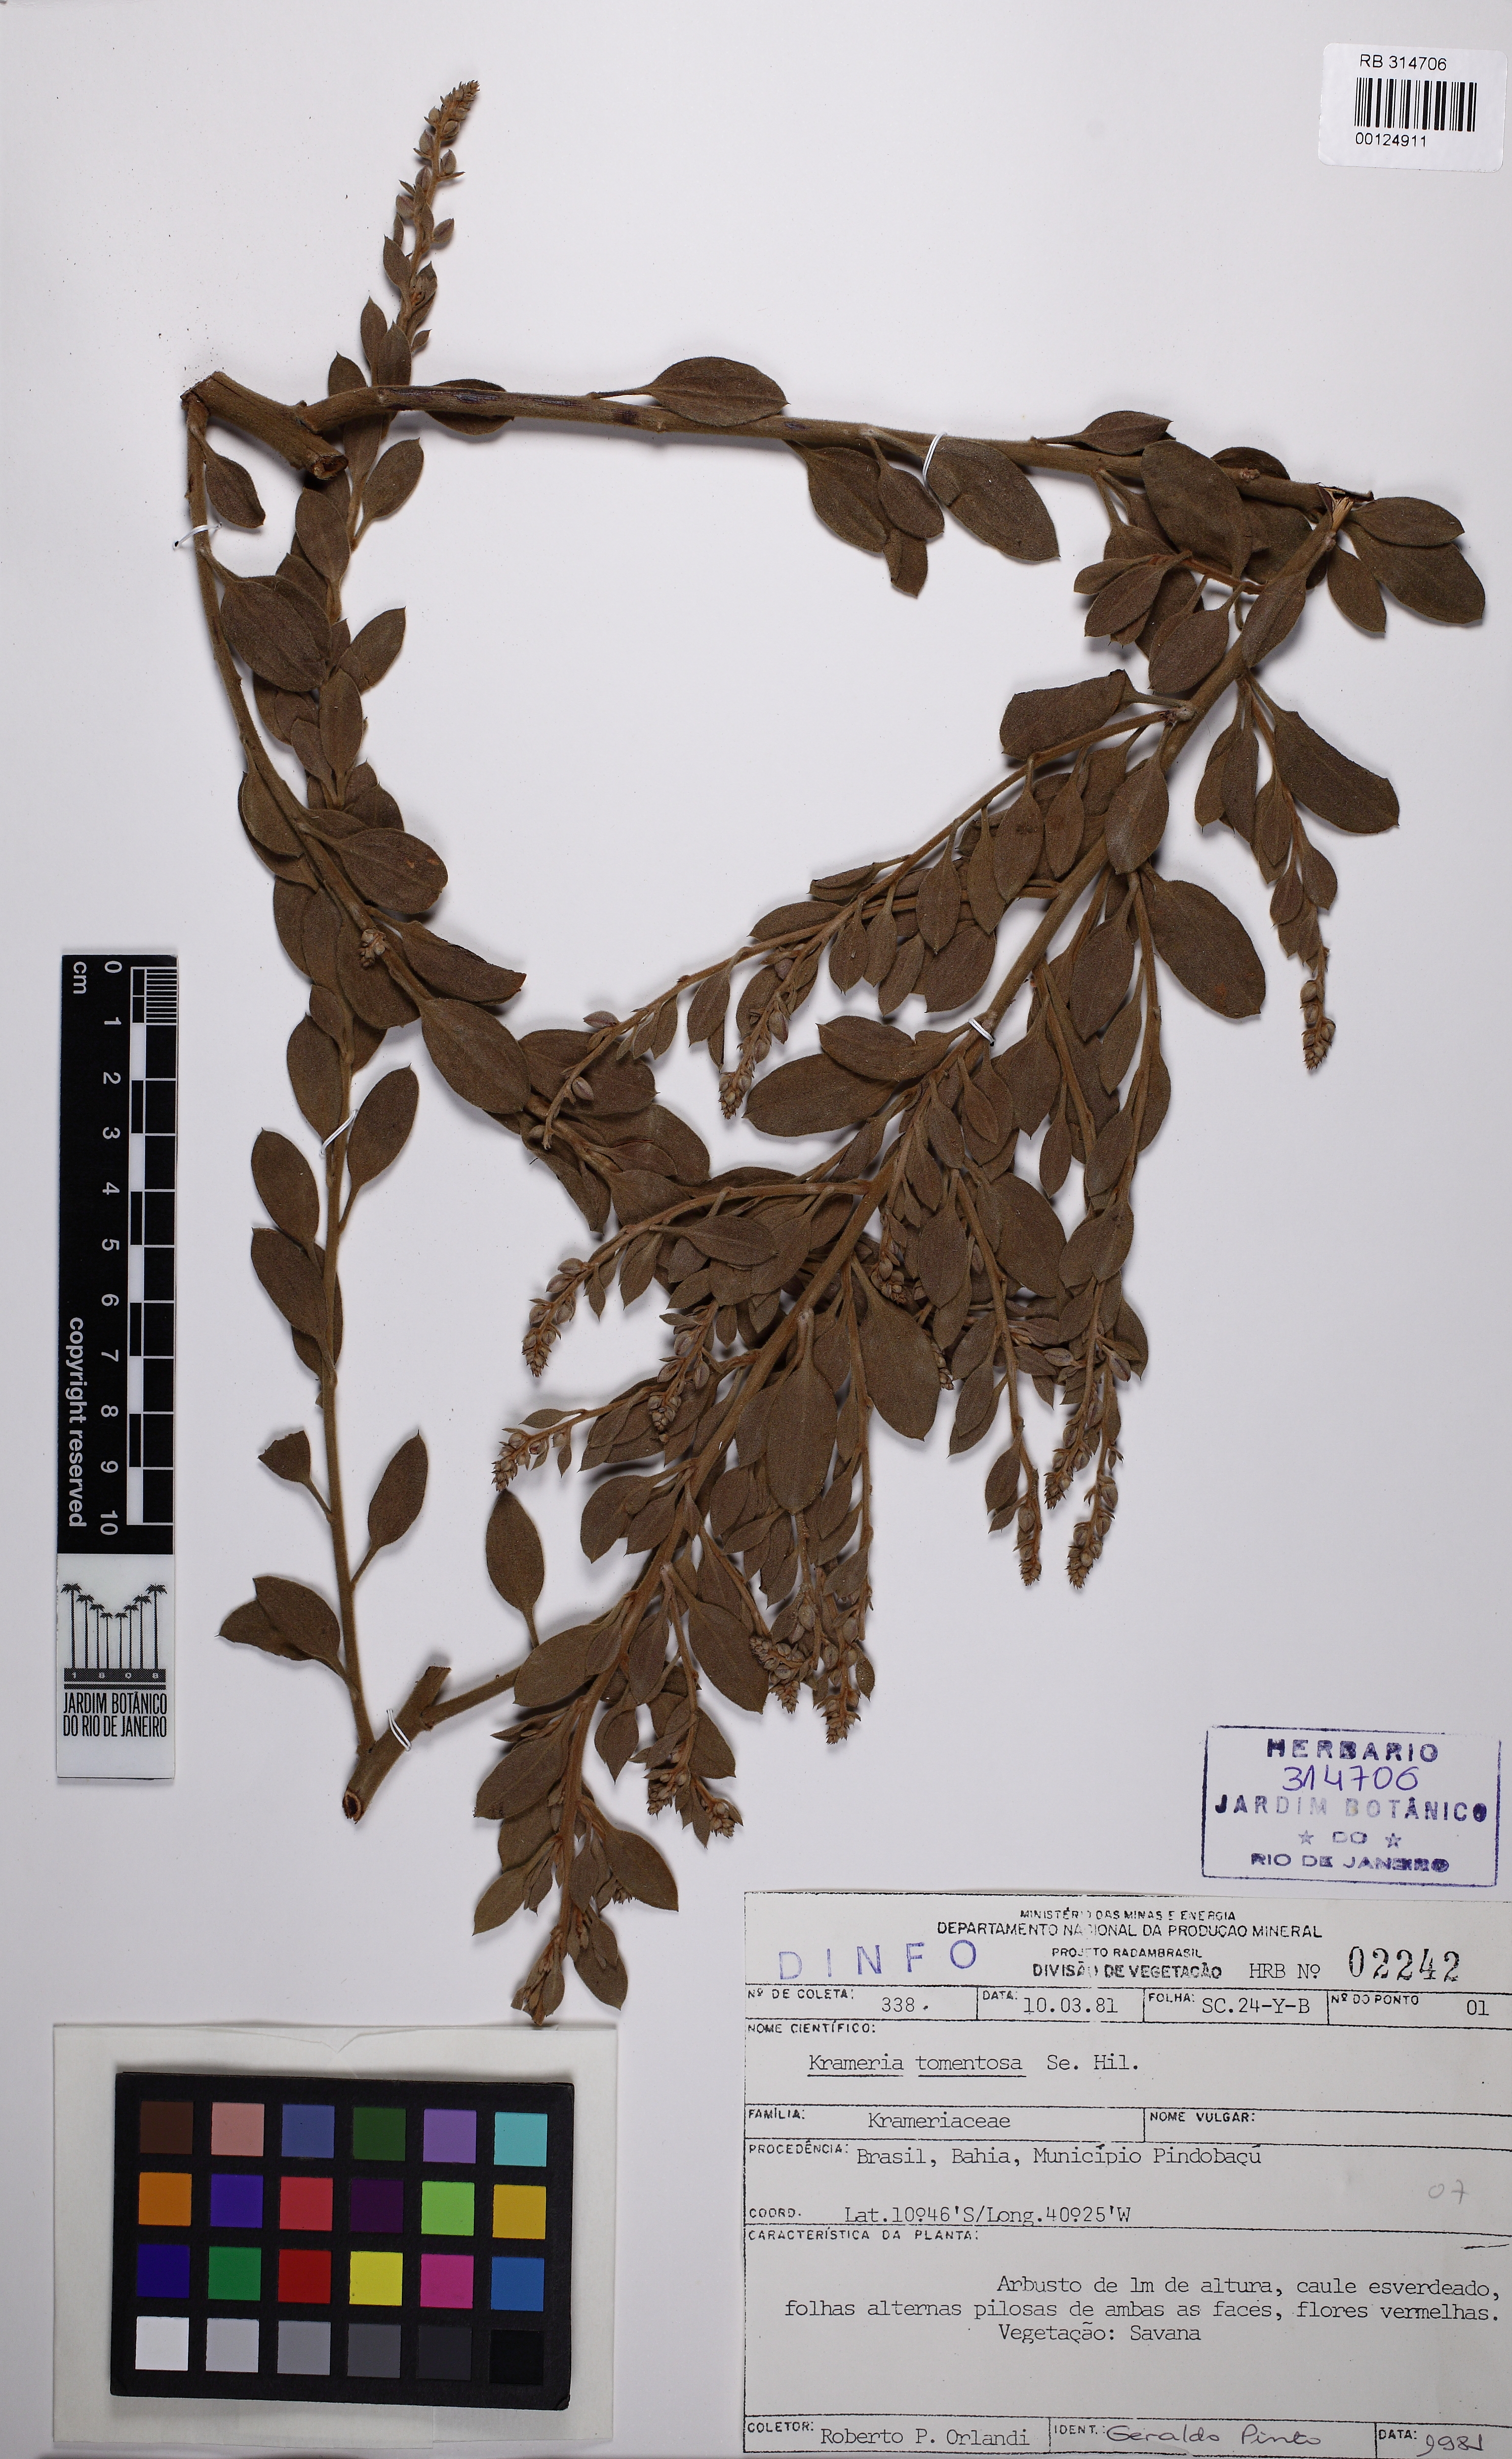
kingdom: Plantae
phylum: Tracheophyta
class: Magnoliopsida
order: Zygophyllales
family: Krameriaceae
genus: Krameria
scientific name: Krameria tomentosa
